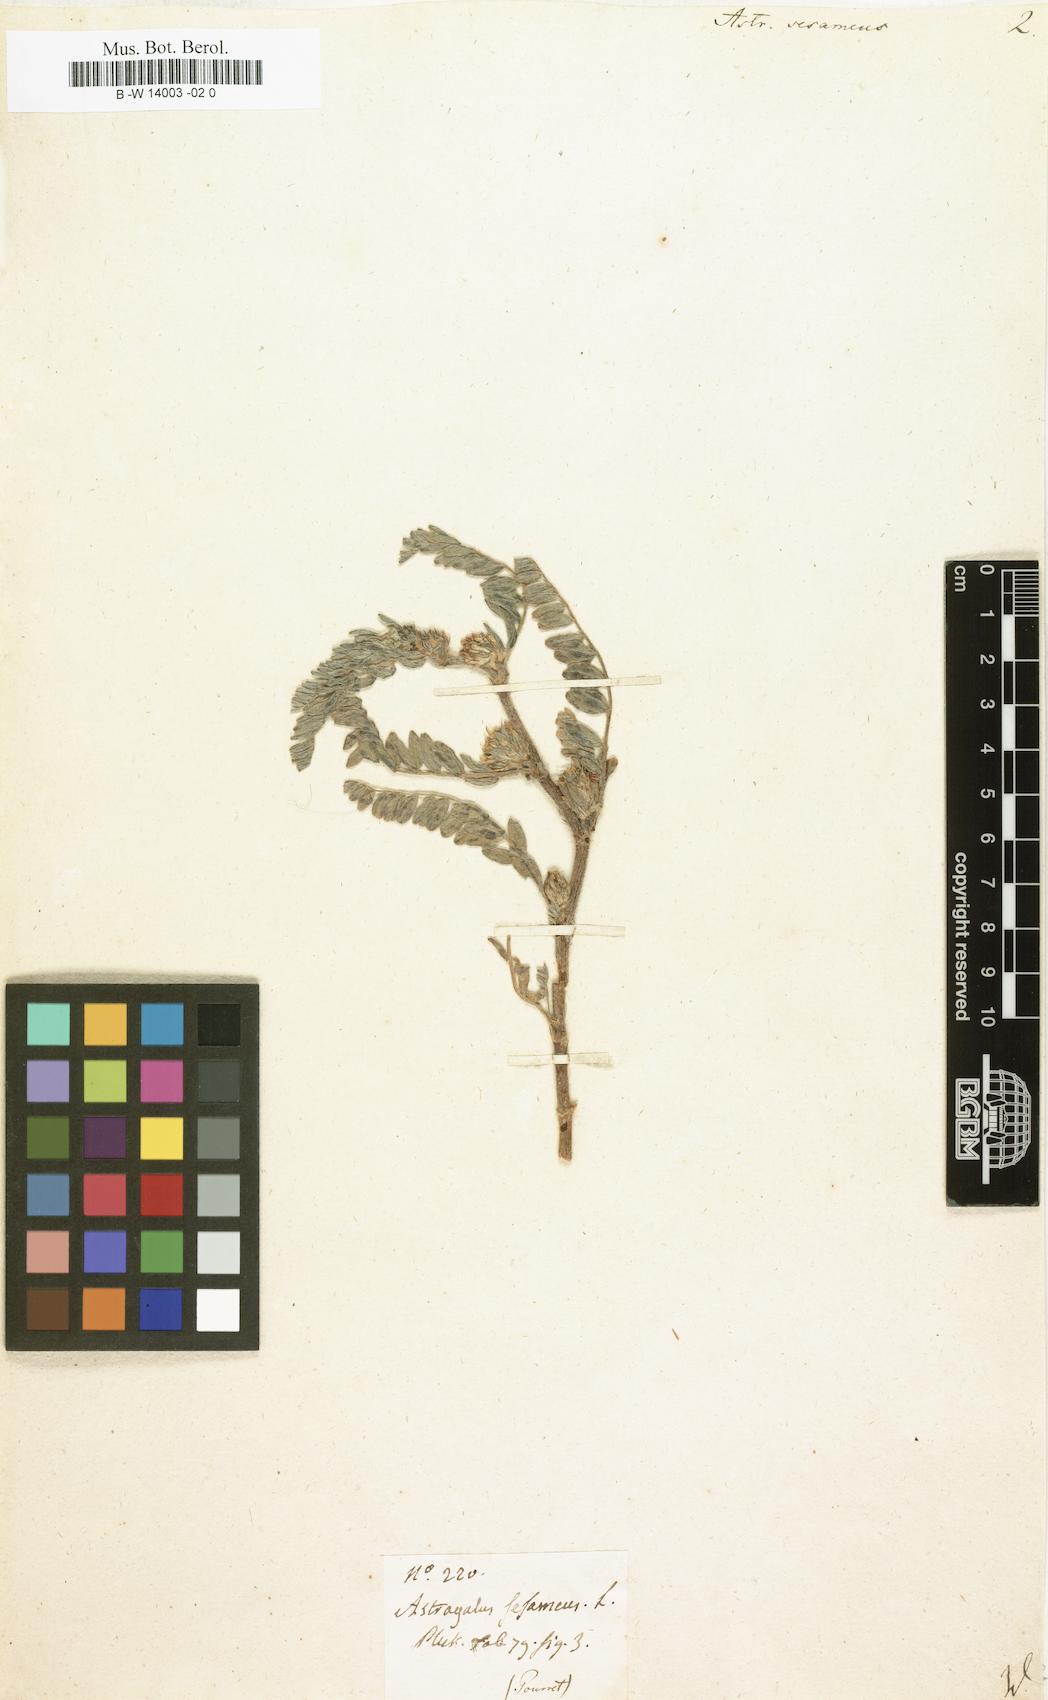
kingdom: Plantae
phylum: Tracheophyta
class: Magnoliopsida
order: Fabales
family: Fabaceae
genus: Astragalus
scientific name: Astragalus sesameus
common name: Purple milk-vetch
